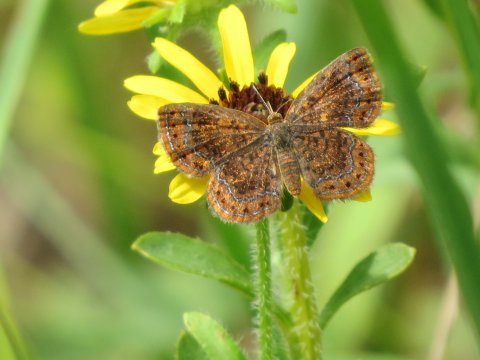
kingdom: Animalia
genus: Calephelis
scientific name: Calephelis borealis
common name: Northern Metalmark
